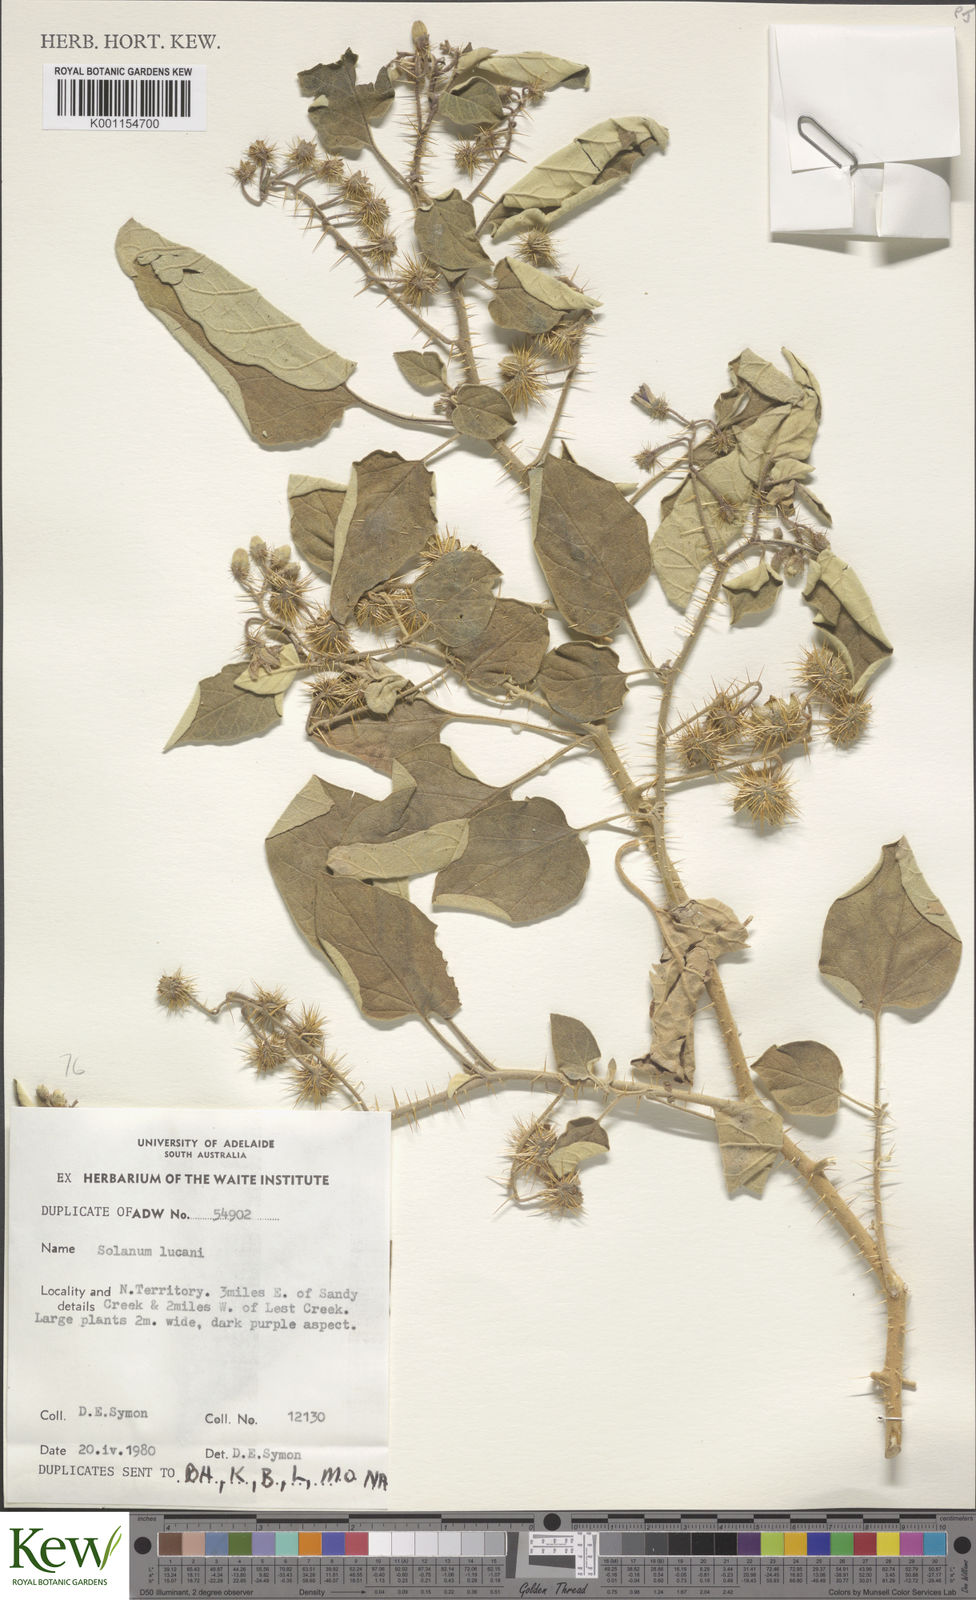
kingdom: Plantae
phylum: Tracheophyta
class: Magnoliopsida
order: Solanales
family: Solanaceae
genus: Solanum
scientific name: Solanum lucani
